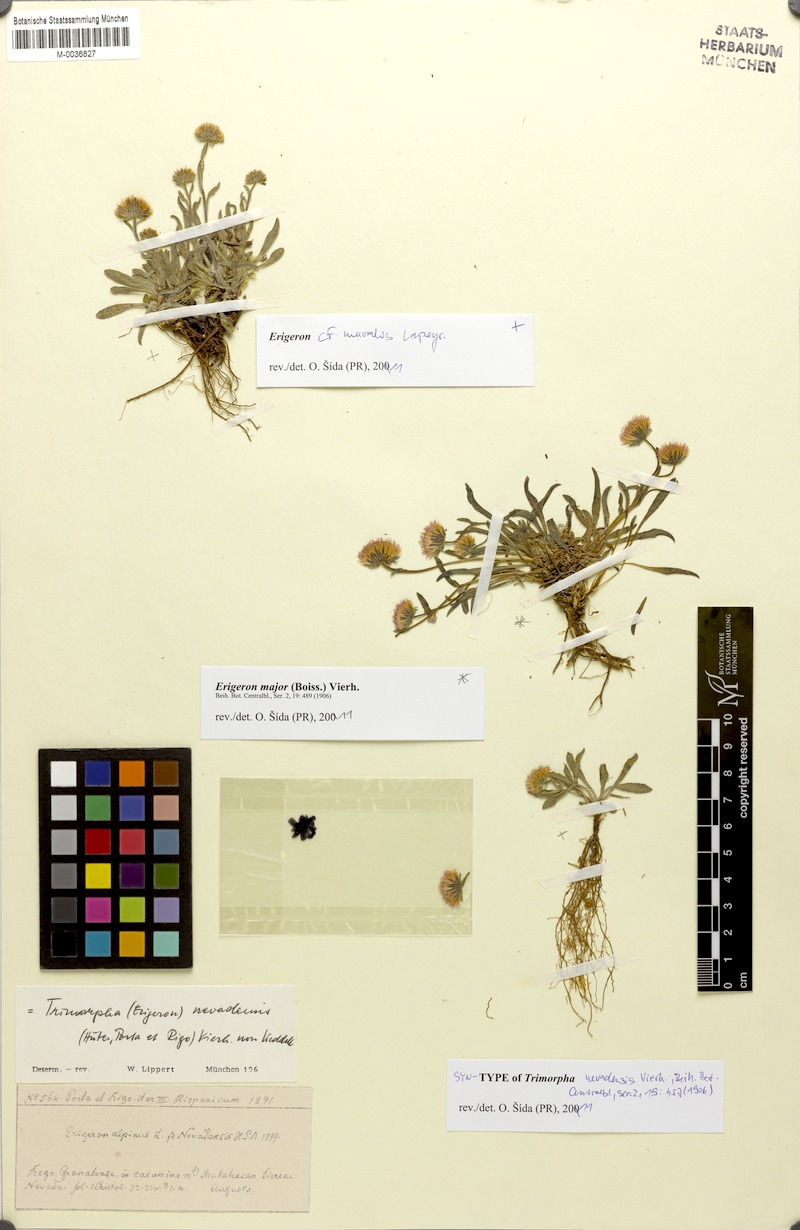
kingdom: Plantae
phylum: Tracheophyta
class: Magnoliopsida
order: Asterales
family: Asteraceae
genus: Erigeron
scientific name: Erigeron muralis
